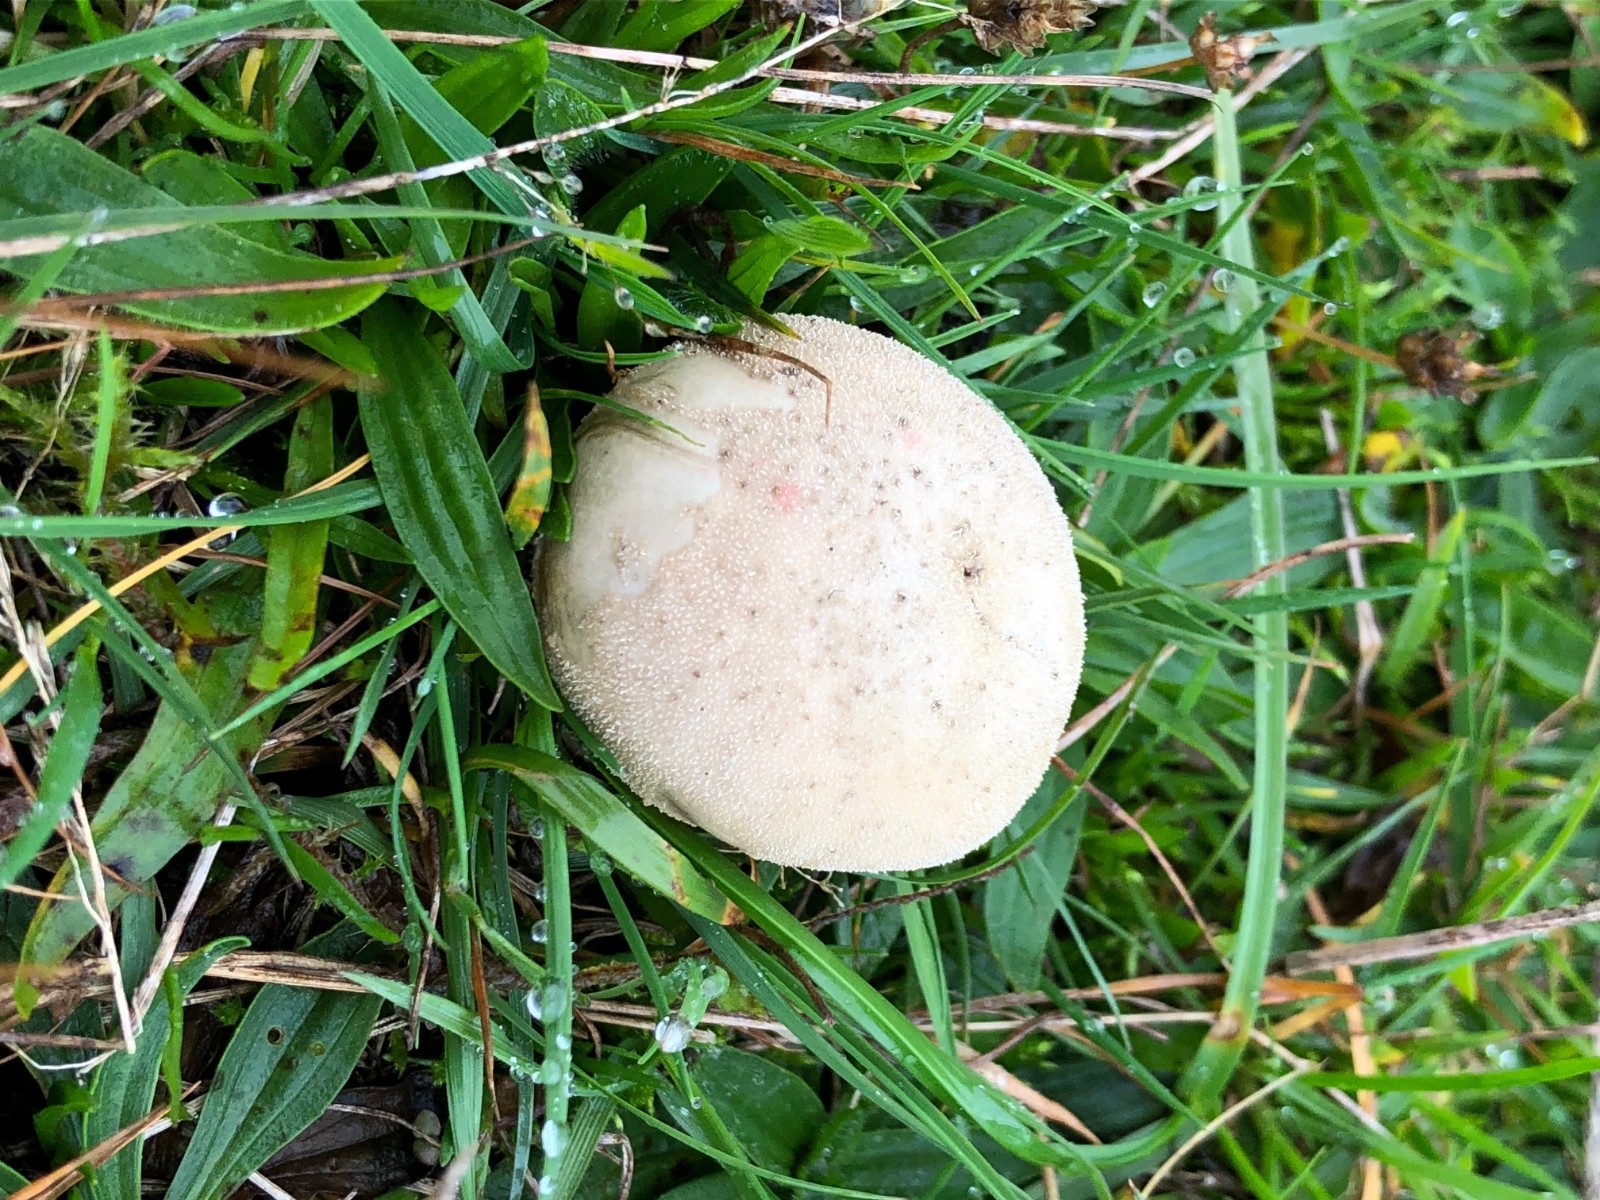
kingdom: Fungi
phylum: Basidiomycota
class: Agaricomycetes
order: Agaricales
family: Lycoperdaceae
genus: Lycoperdon
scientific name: Lycoperdon pratense
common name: flad støvbold
